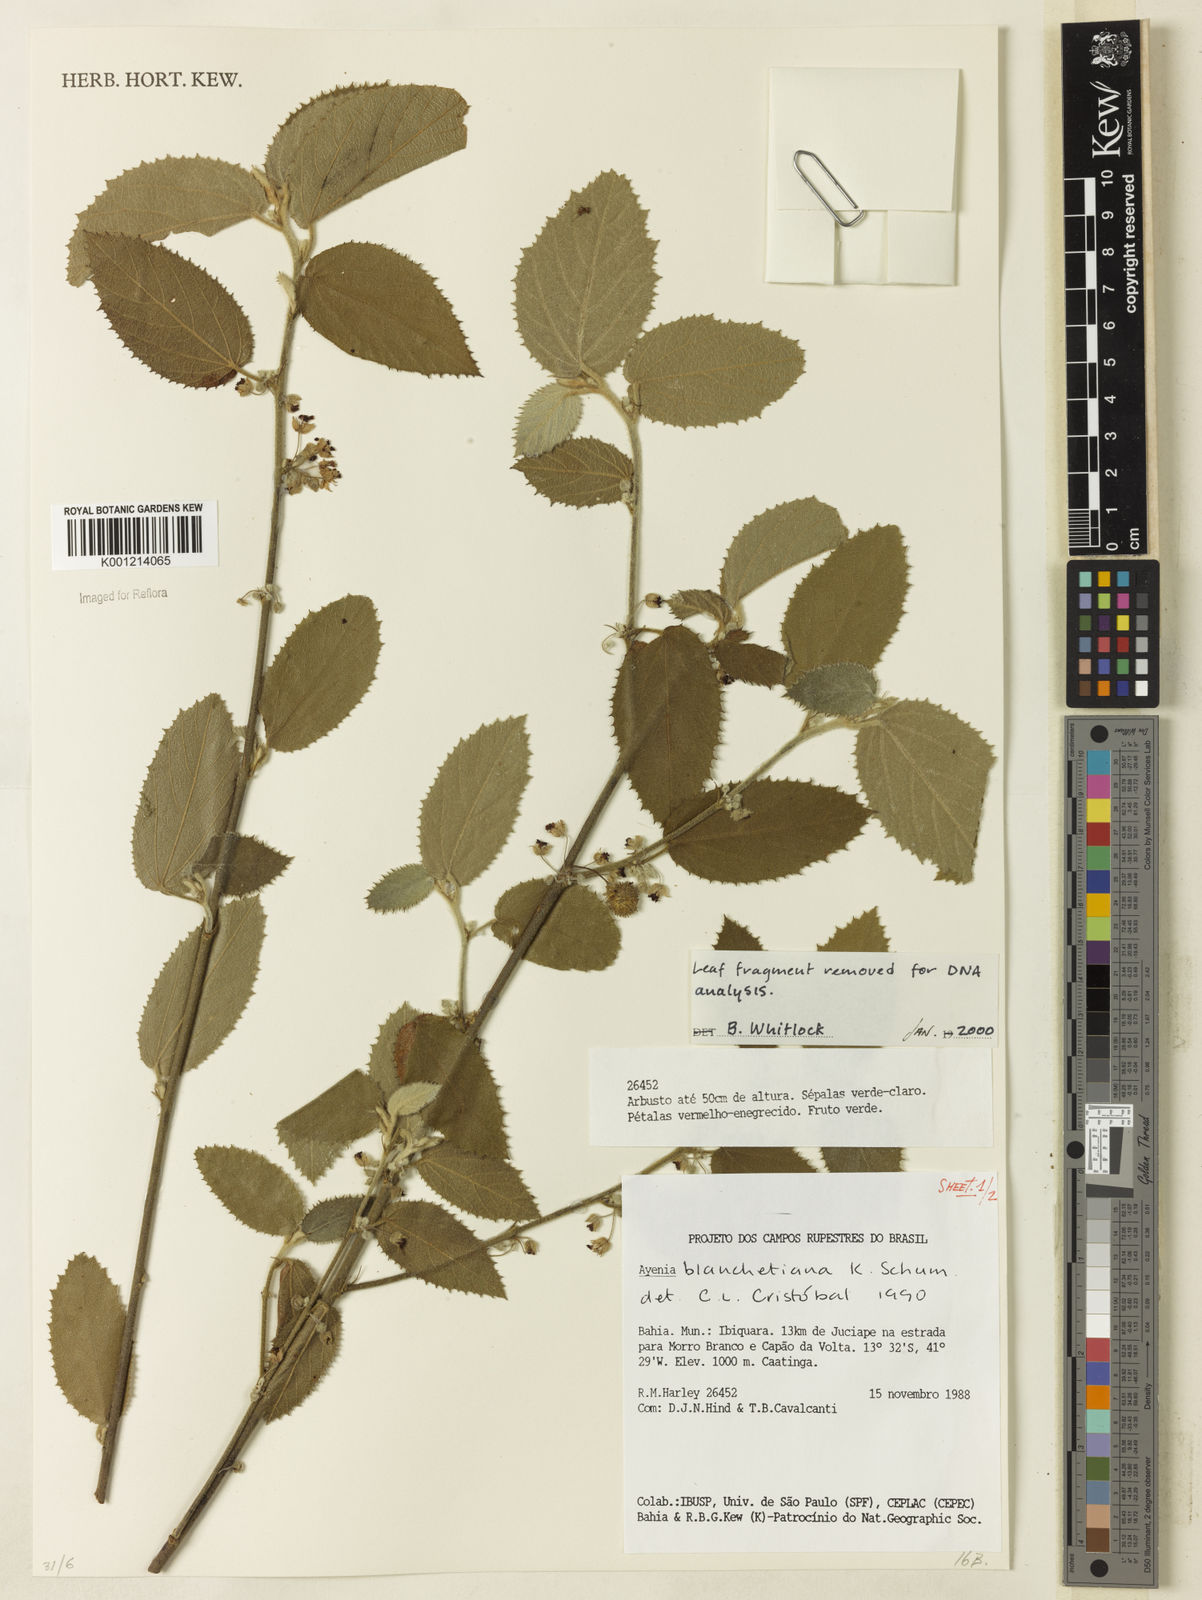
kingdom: Plantae
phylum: Tracheophyta
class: Magnoliopsida
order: Malvales
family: Malvaceae
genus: Ayenia
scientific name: Ayenia blanchetiana
